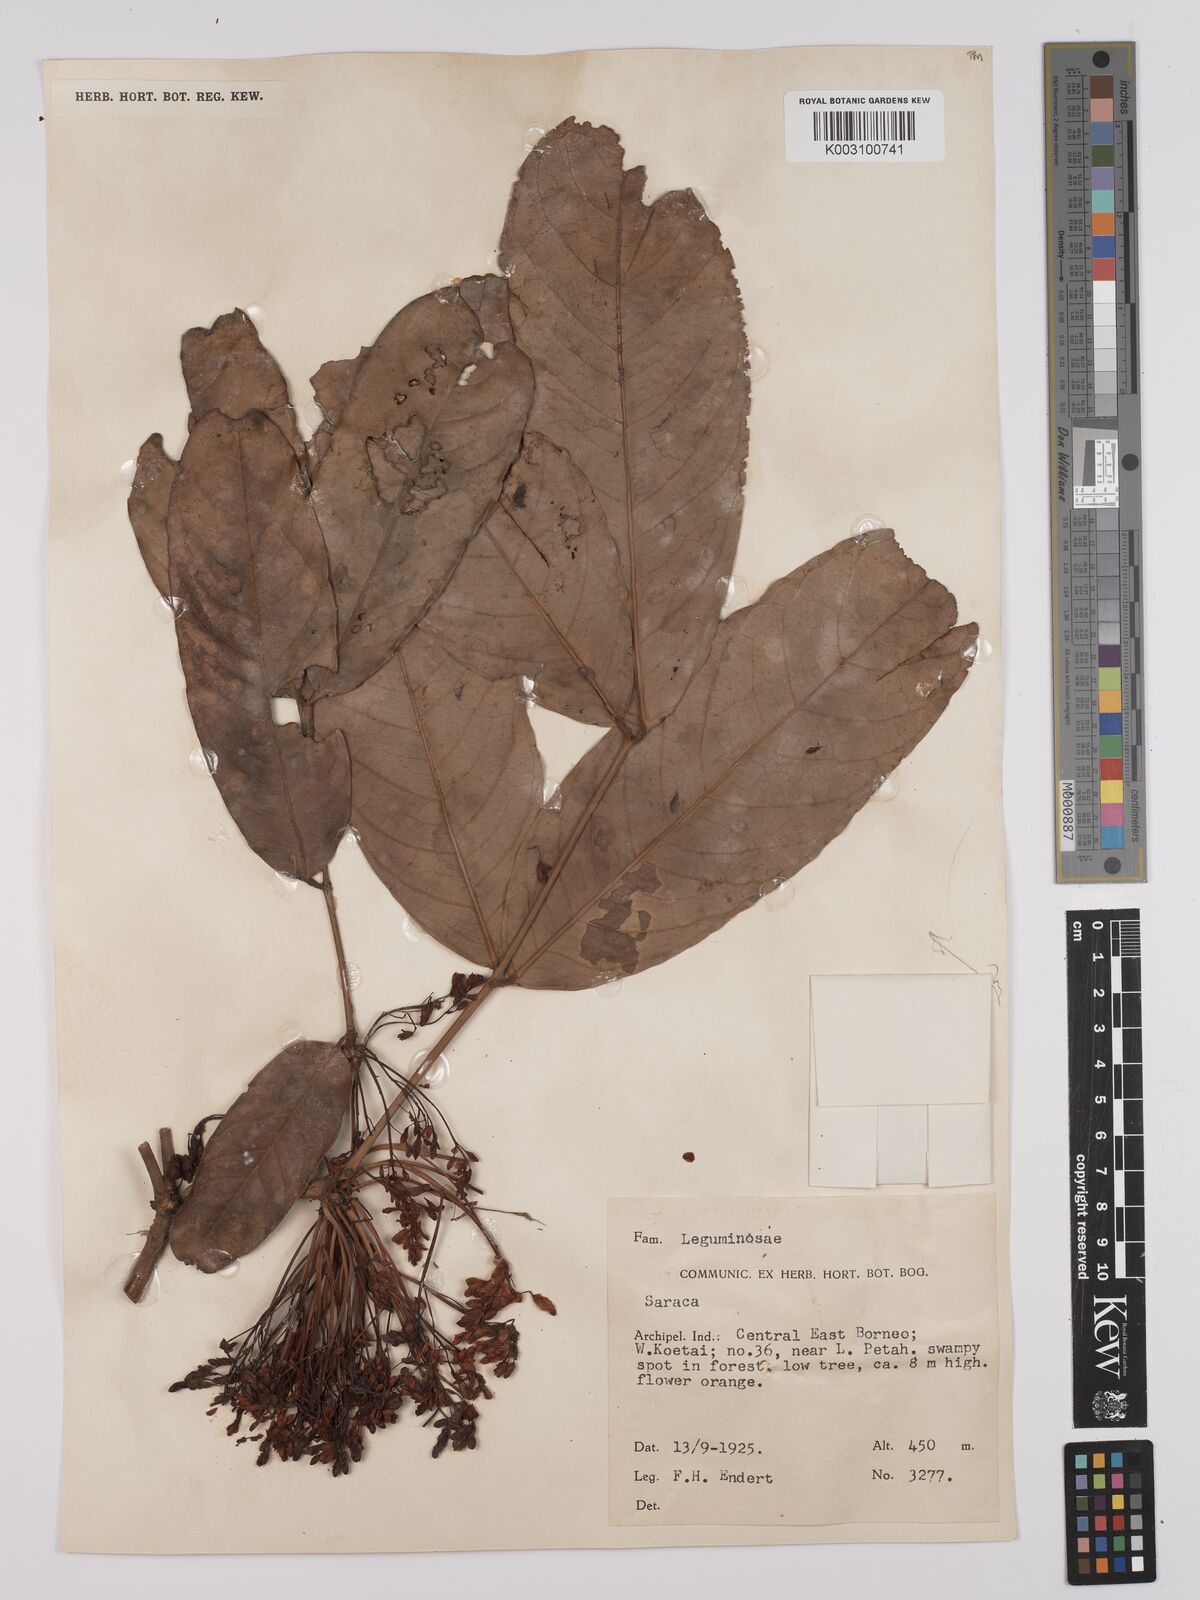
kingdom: Plantae
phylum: Tracheophyta
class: Magnoliopsida
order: Fabales
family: Fabaceae
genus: Saraca
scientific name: Saraca declinata
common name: Red saraca
